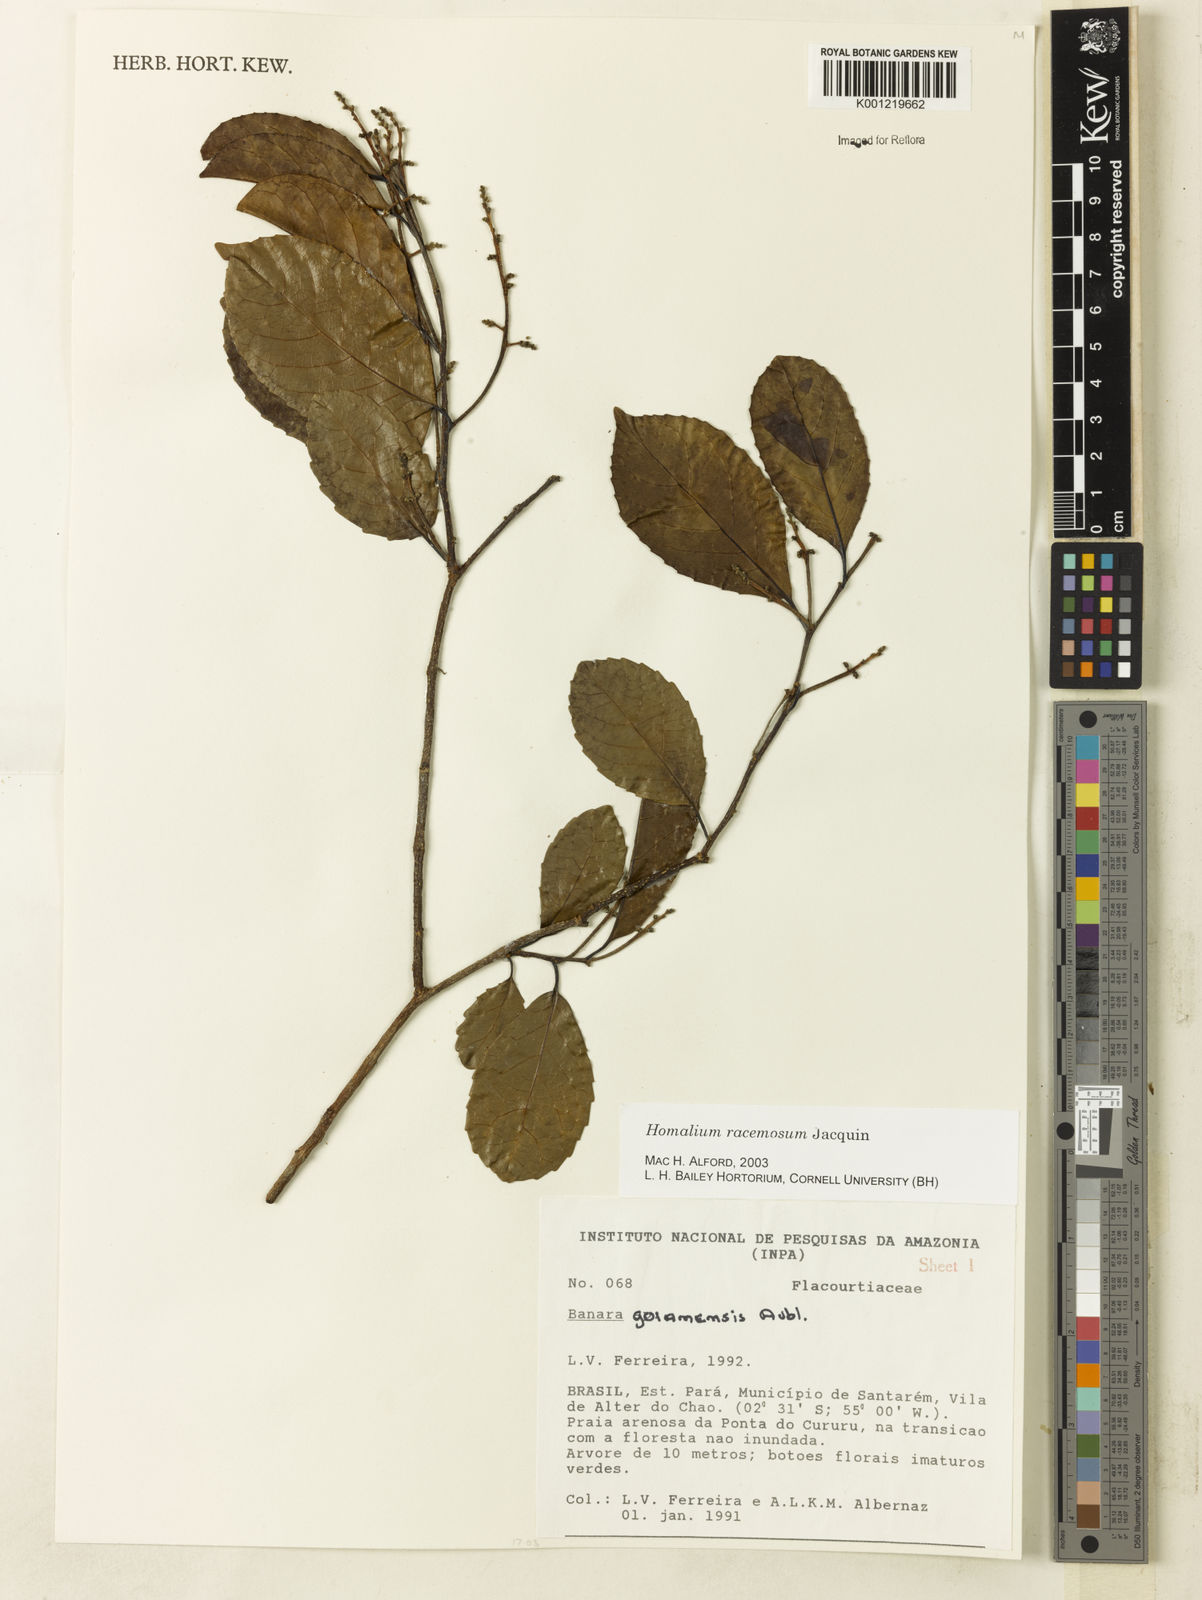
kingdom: Plantae
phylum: Tracheophyta
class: Magnoliopsida
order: Malpighiales
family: Salicaceae
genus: Homalium
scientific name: Homalium racemosum
